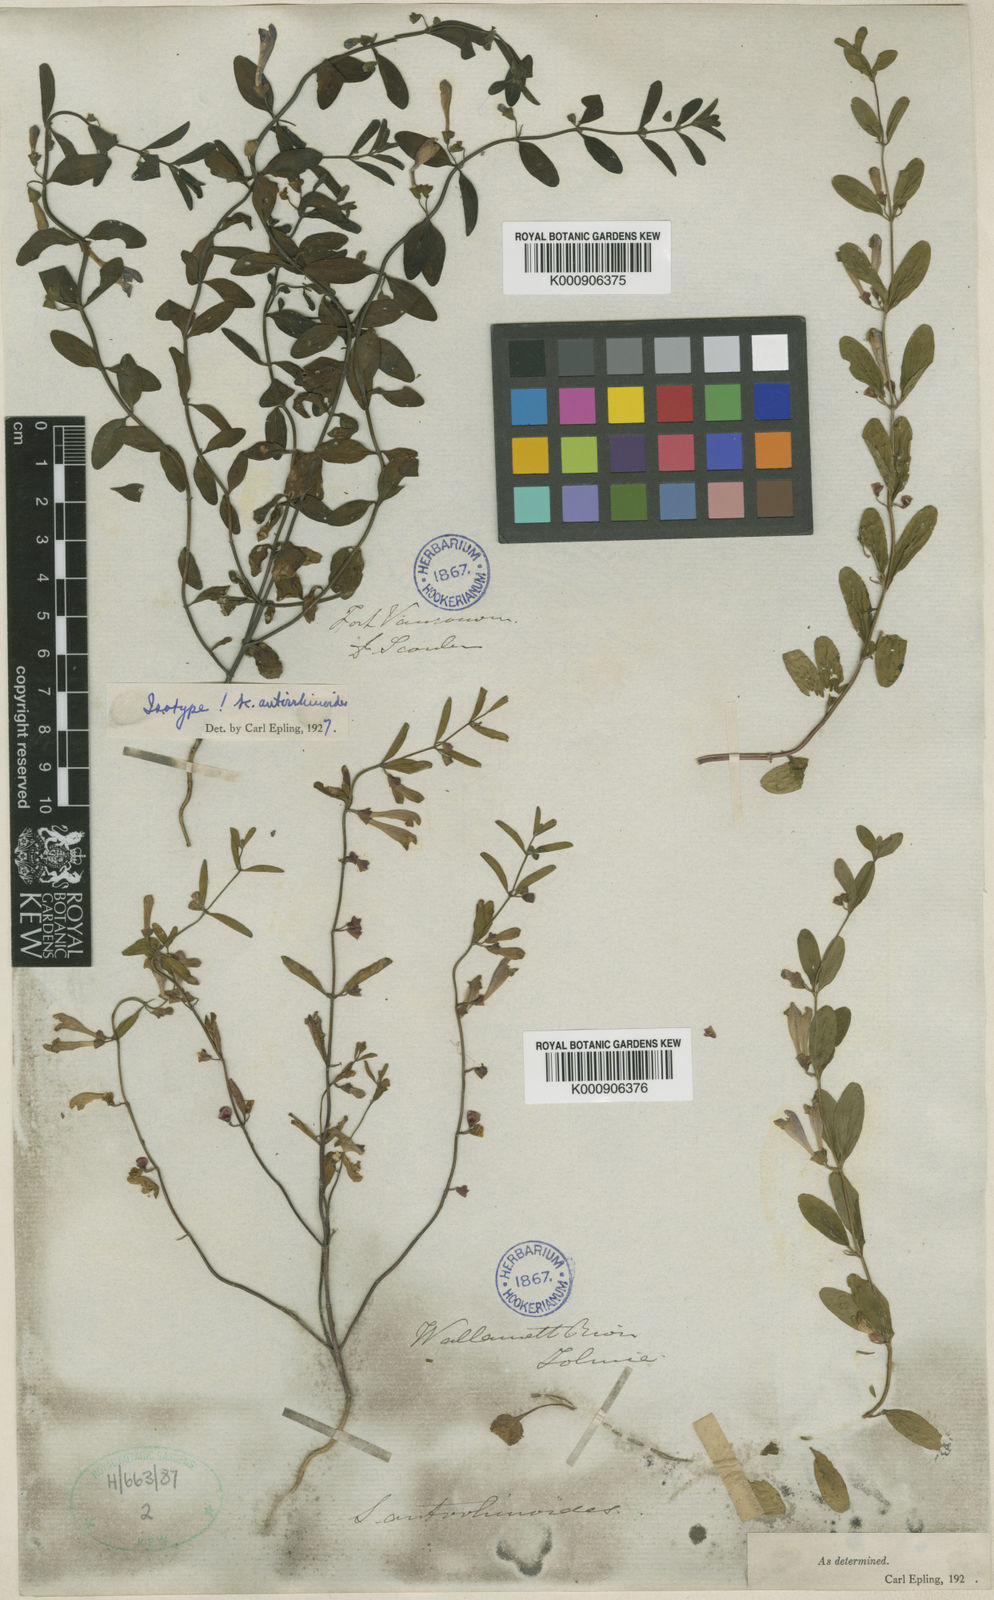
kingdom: Plantae
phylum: Tracheophyta
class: Magnoliopsida
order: Lamiales
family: Lamiaceae
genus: Scutellaria
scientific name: Scutellaria antirrhinoides
